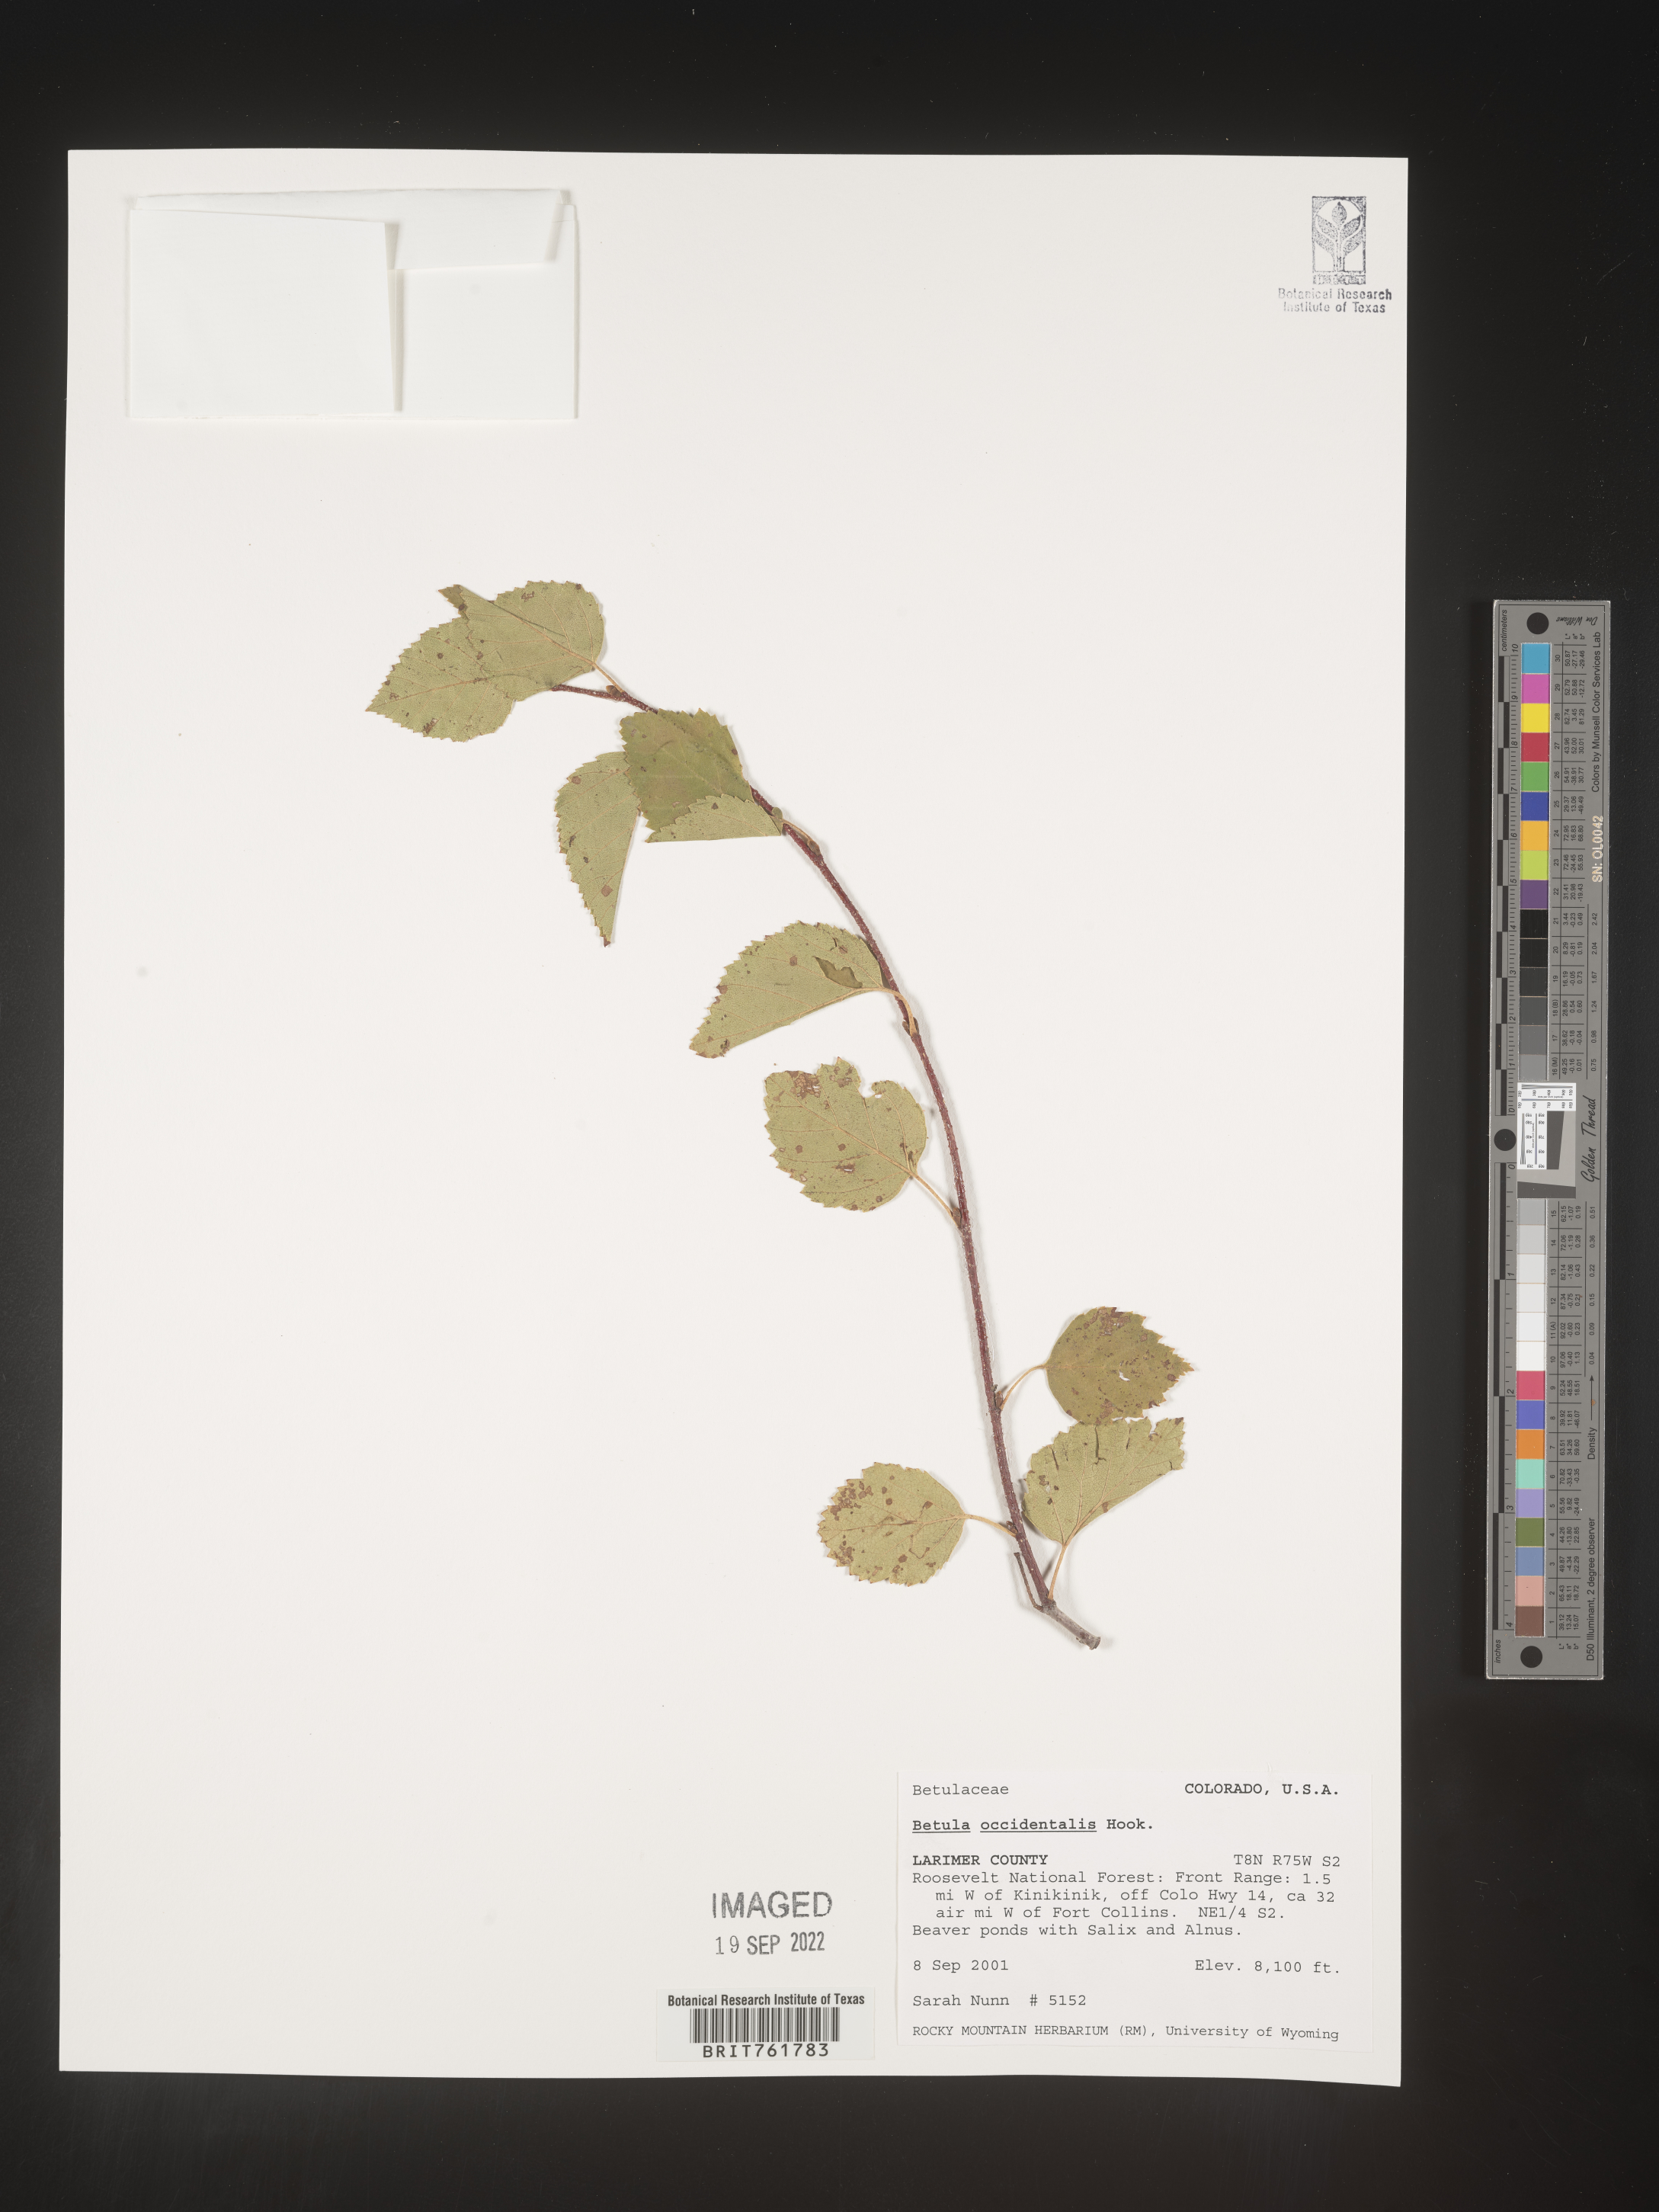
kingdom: Plantae
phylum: Tracheophyta
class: Magnoliopsida
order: Fagales
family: Betulaceae
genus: Betula
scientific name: Betula occidentalis
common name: River birch
